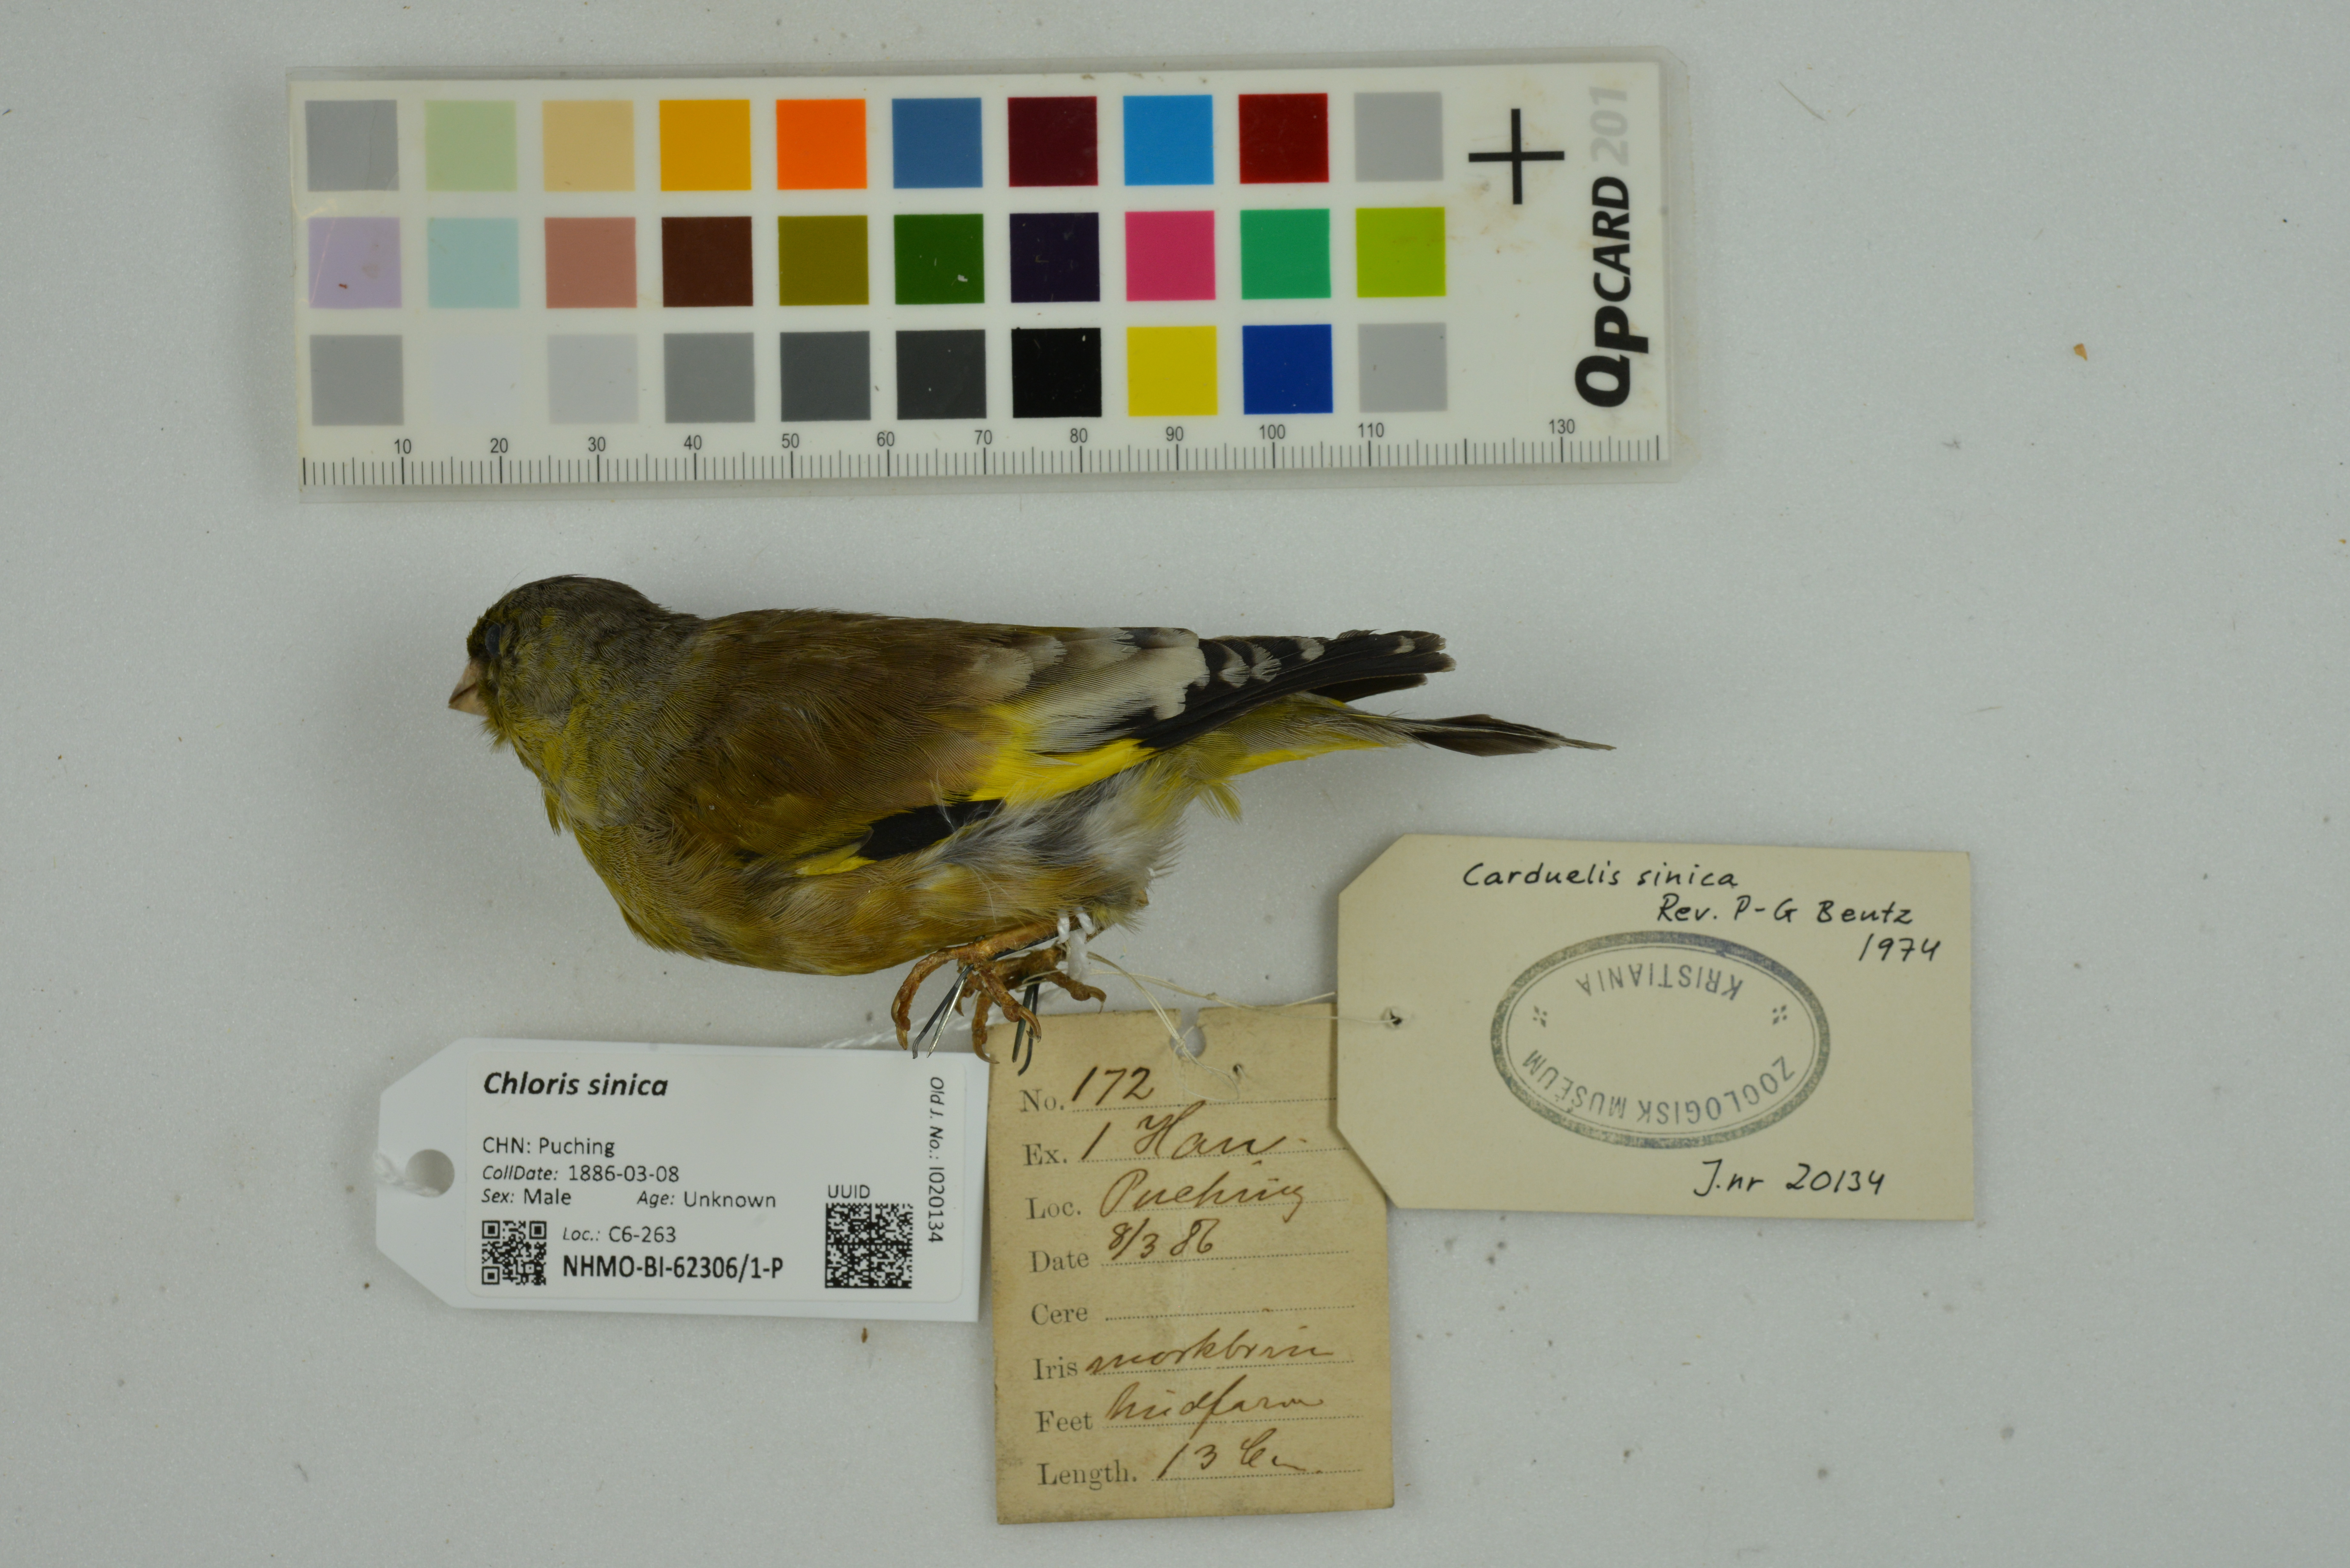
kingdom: Plantae
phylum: Tracheophyta
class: Liliopsida
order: Poales
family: Poaceae
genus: Chloris
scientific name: Chloris sinica
